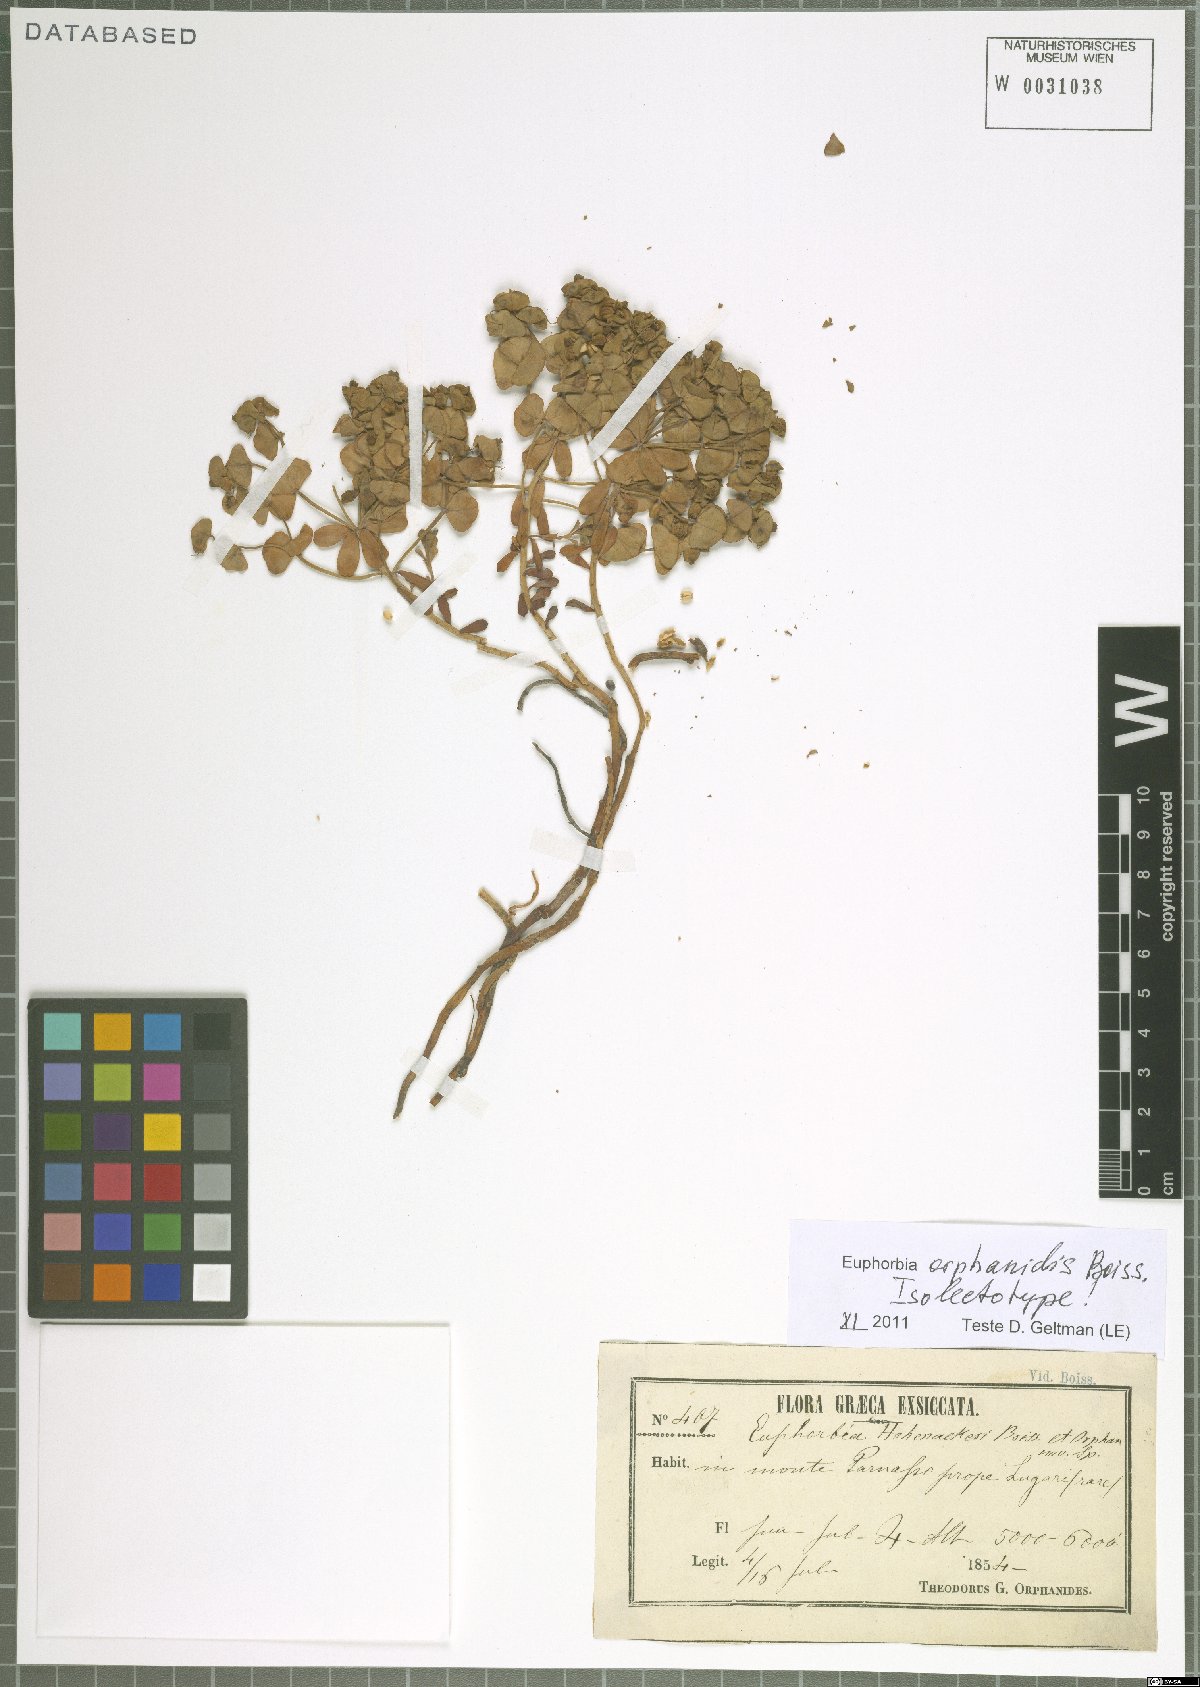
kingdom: Plantae
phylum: Tracheophyta
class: Magnoliopsida
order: Malpighiales
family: Euphorbiaceae
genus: Euphorbia
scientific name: Euphorbia orphanidis
